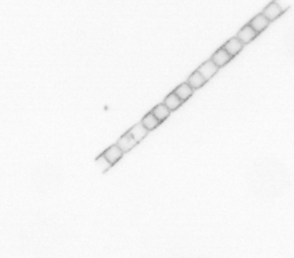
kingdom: Chromista
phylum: Ochrophyta
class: Bacillariophyceae
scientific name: Bacillariophyceae
